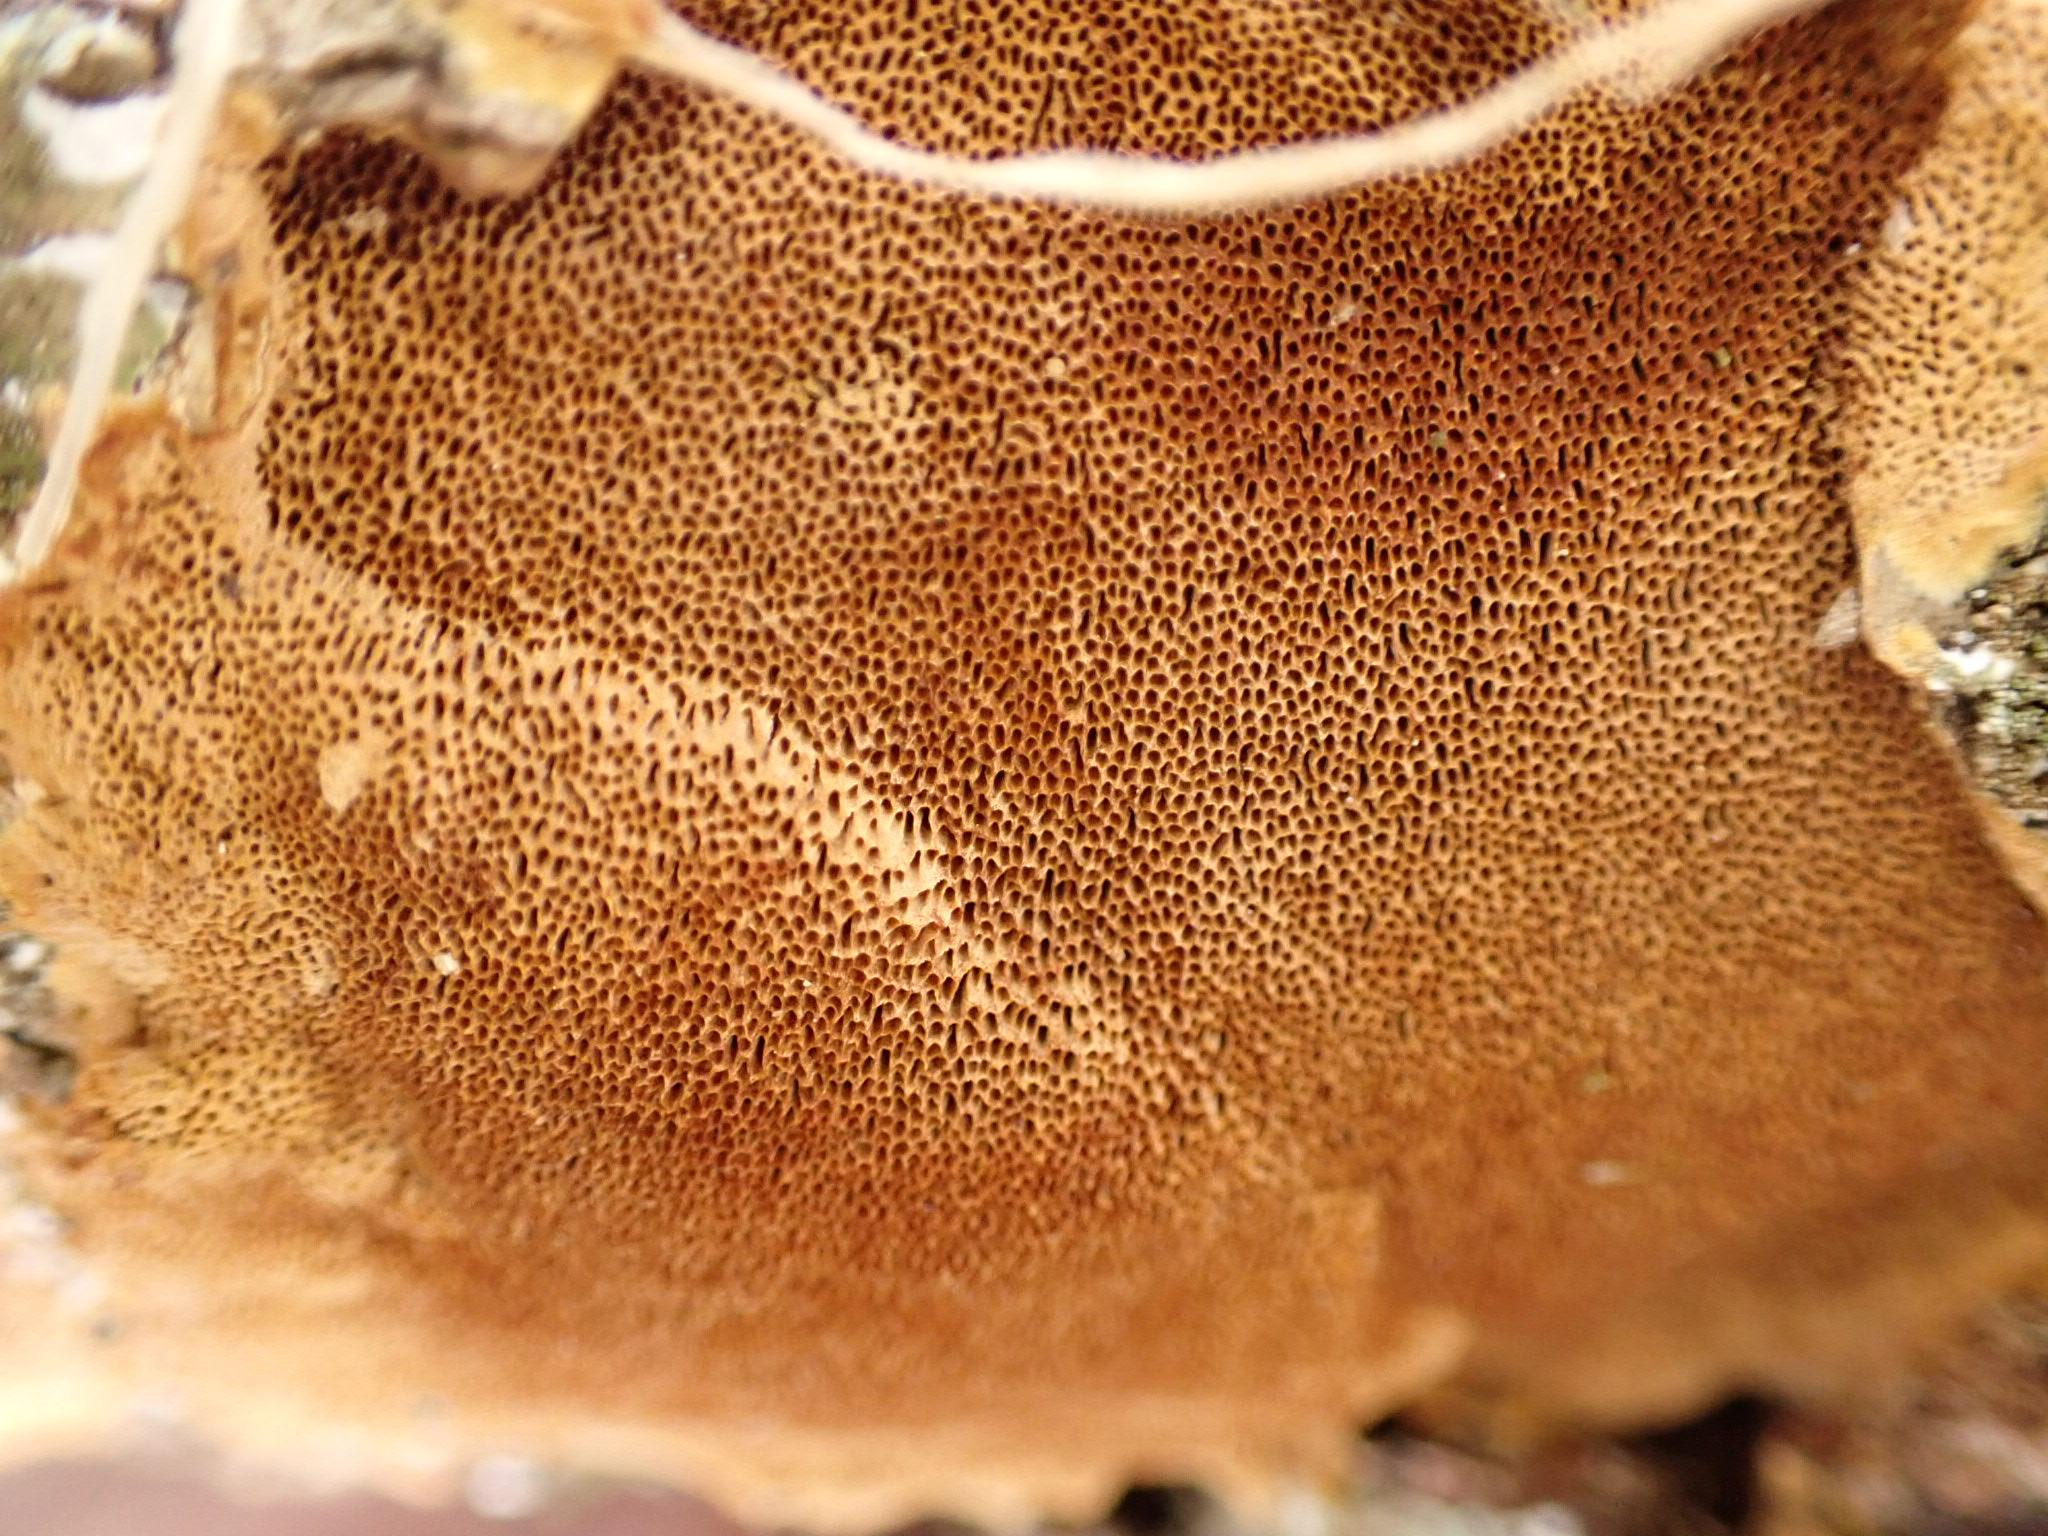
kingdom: Fungi
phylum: Basidiomycota
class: Agaricomycetes
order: Hymenochaetales
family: Hymenochaetaceae
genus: Fuscoporia
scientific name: Fuscoporia ferrea
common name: skorpe-ildporesvamp
